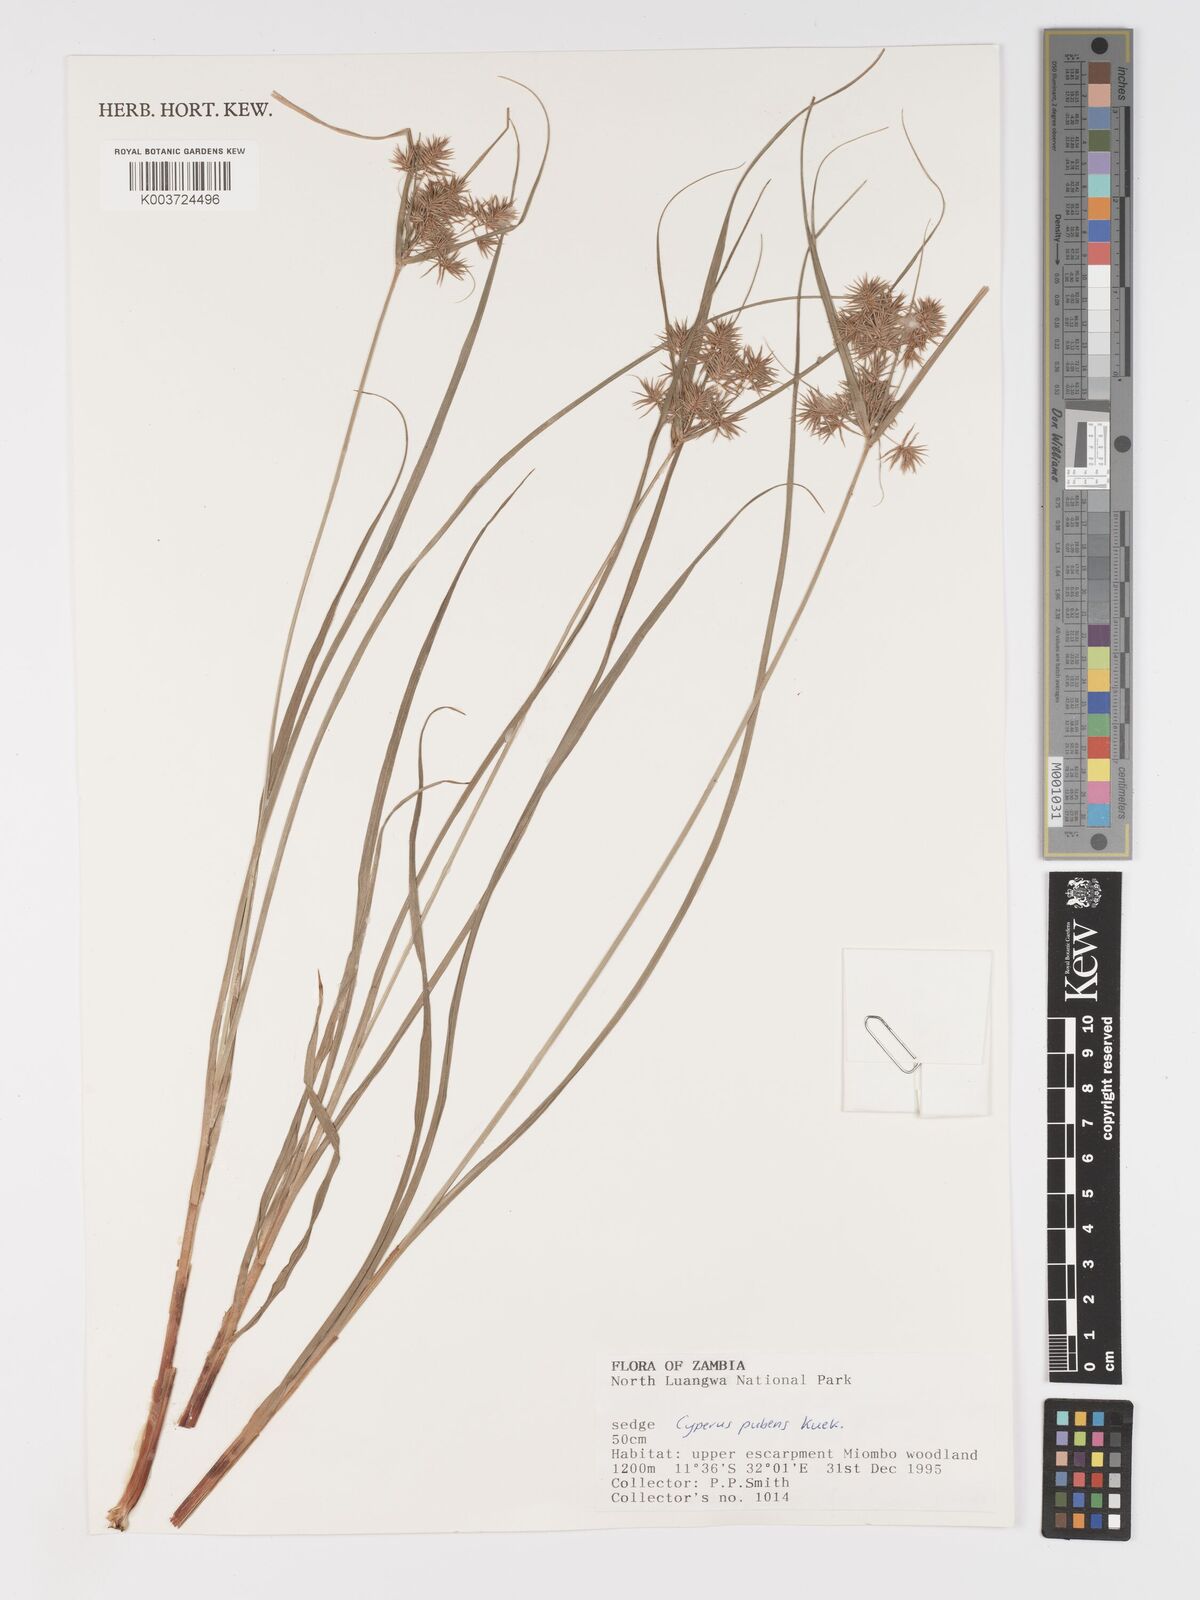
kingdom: Plantae
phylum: Tracheophyta
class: Liliopsida
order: Poales
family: Cyperaceae
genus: Cyperus
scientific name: Cyperus pubens
